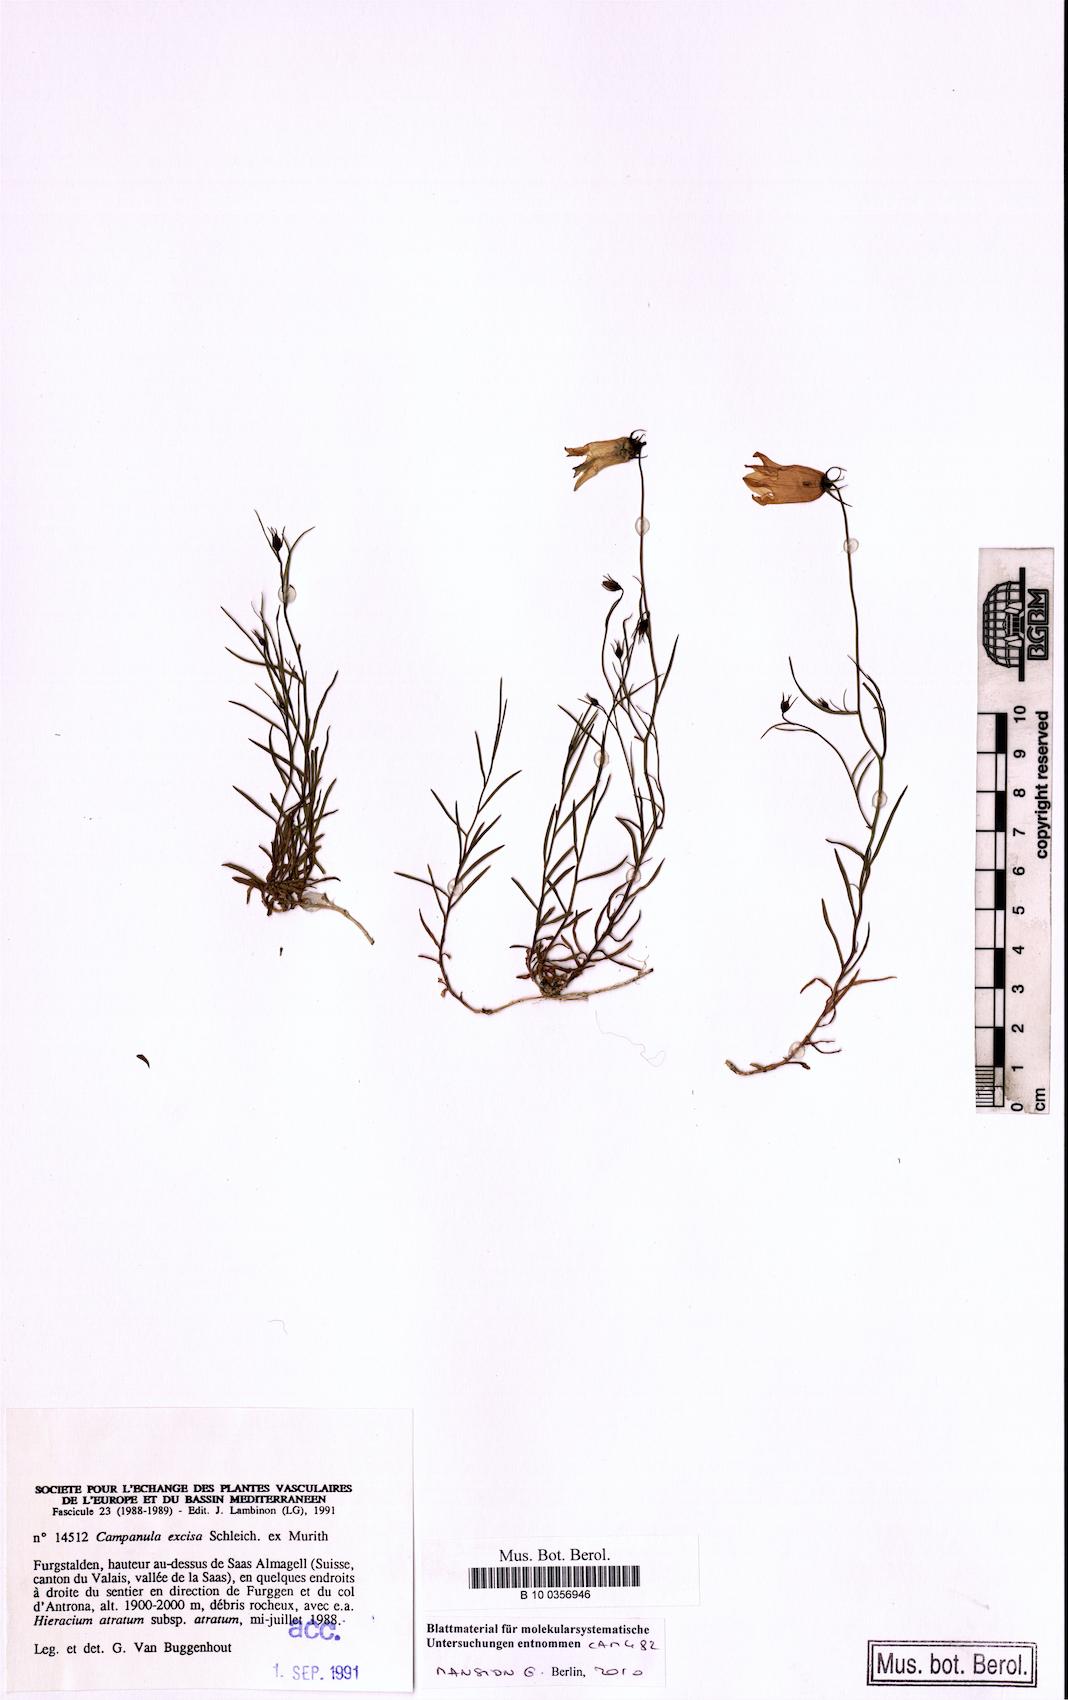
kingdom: Plantae
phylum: Tracheophyta
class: Magnoliopsida
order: Asterales
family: Campanulaceae
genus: Campanula
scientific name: Campanula excisa
